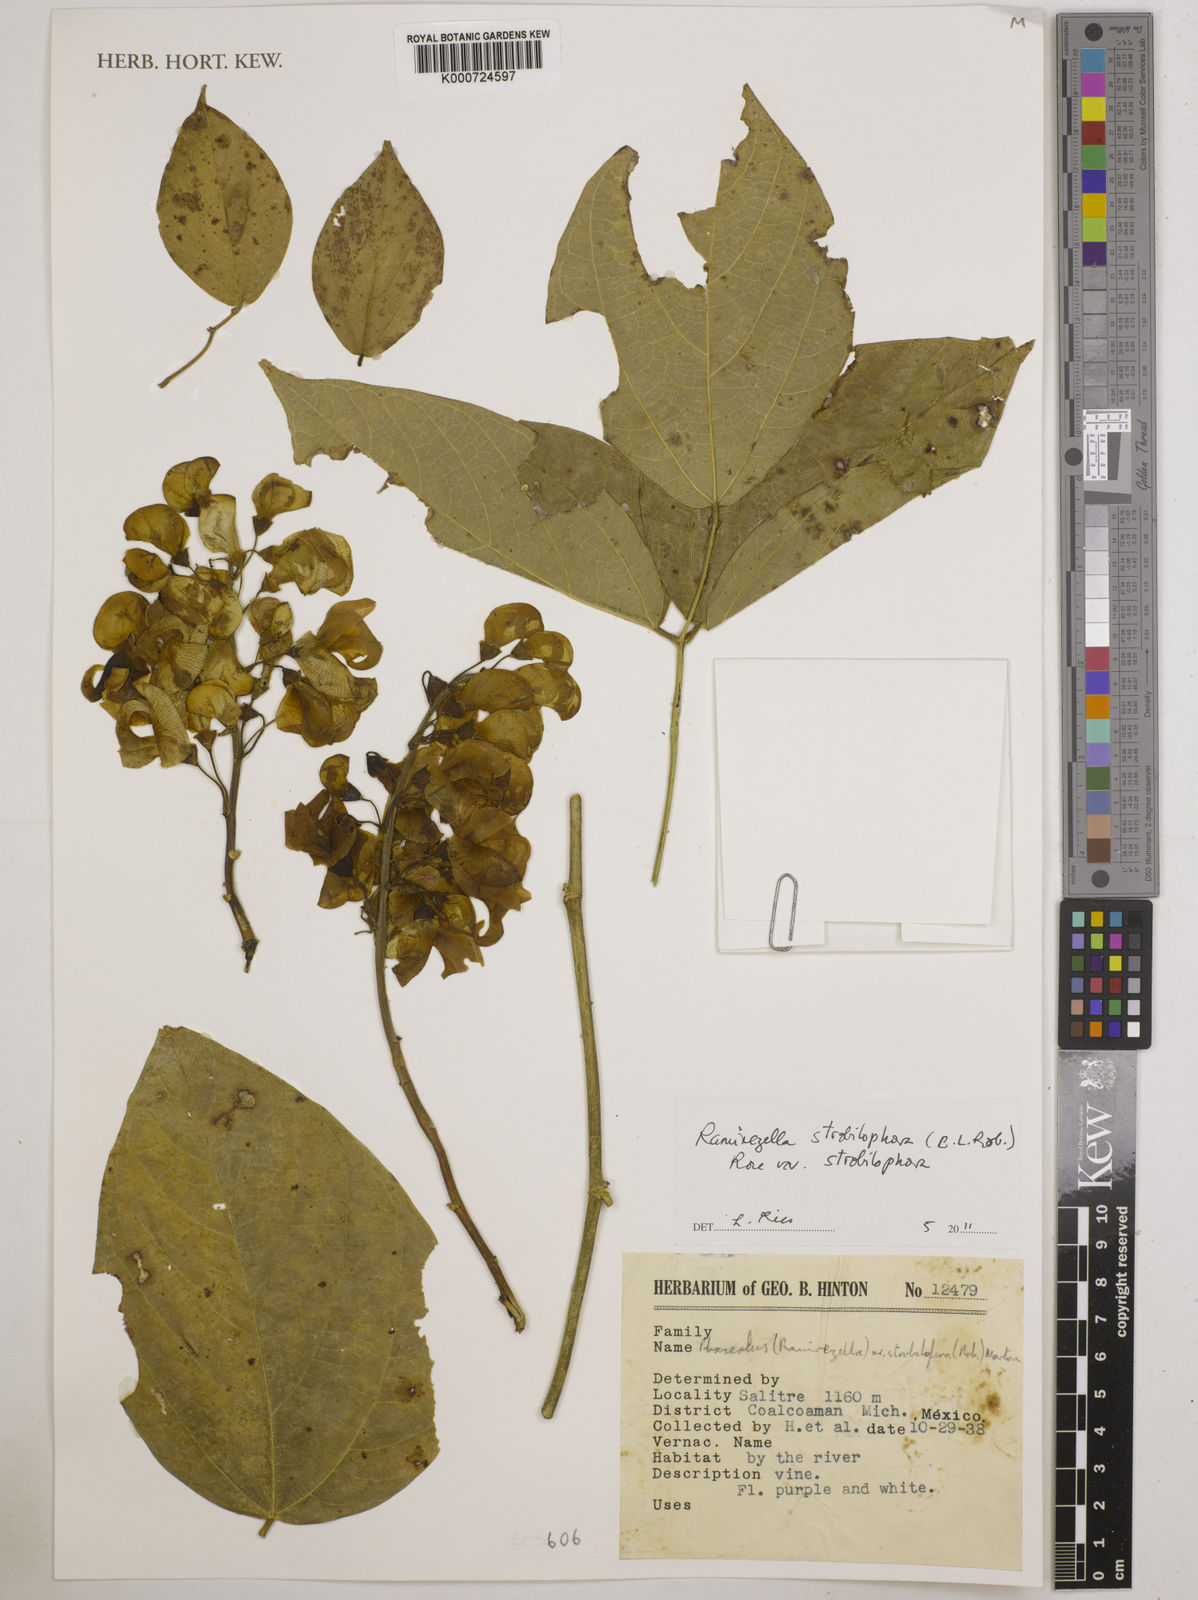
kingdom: Plantae
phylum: Tracheophyta
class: Magnoliopsida
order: Fabales
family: Fabaceae
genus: Ramirezella
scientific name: Ramirezella strobilophora
